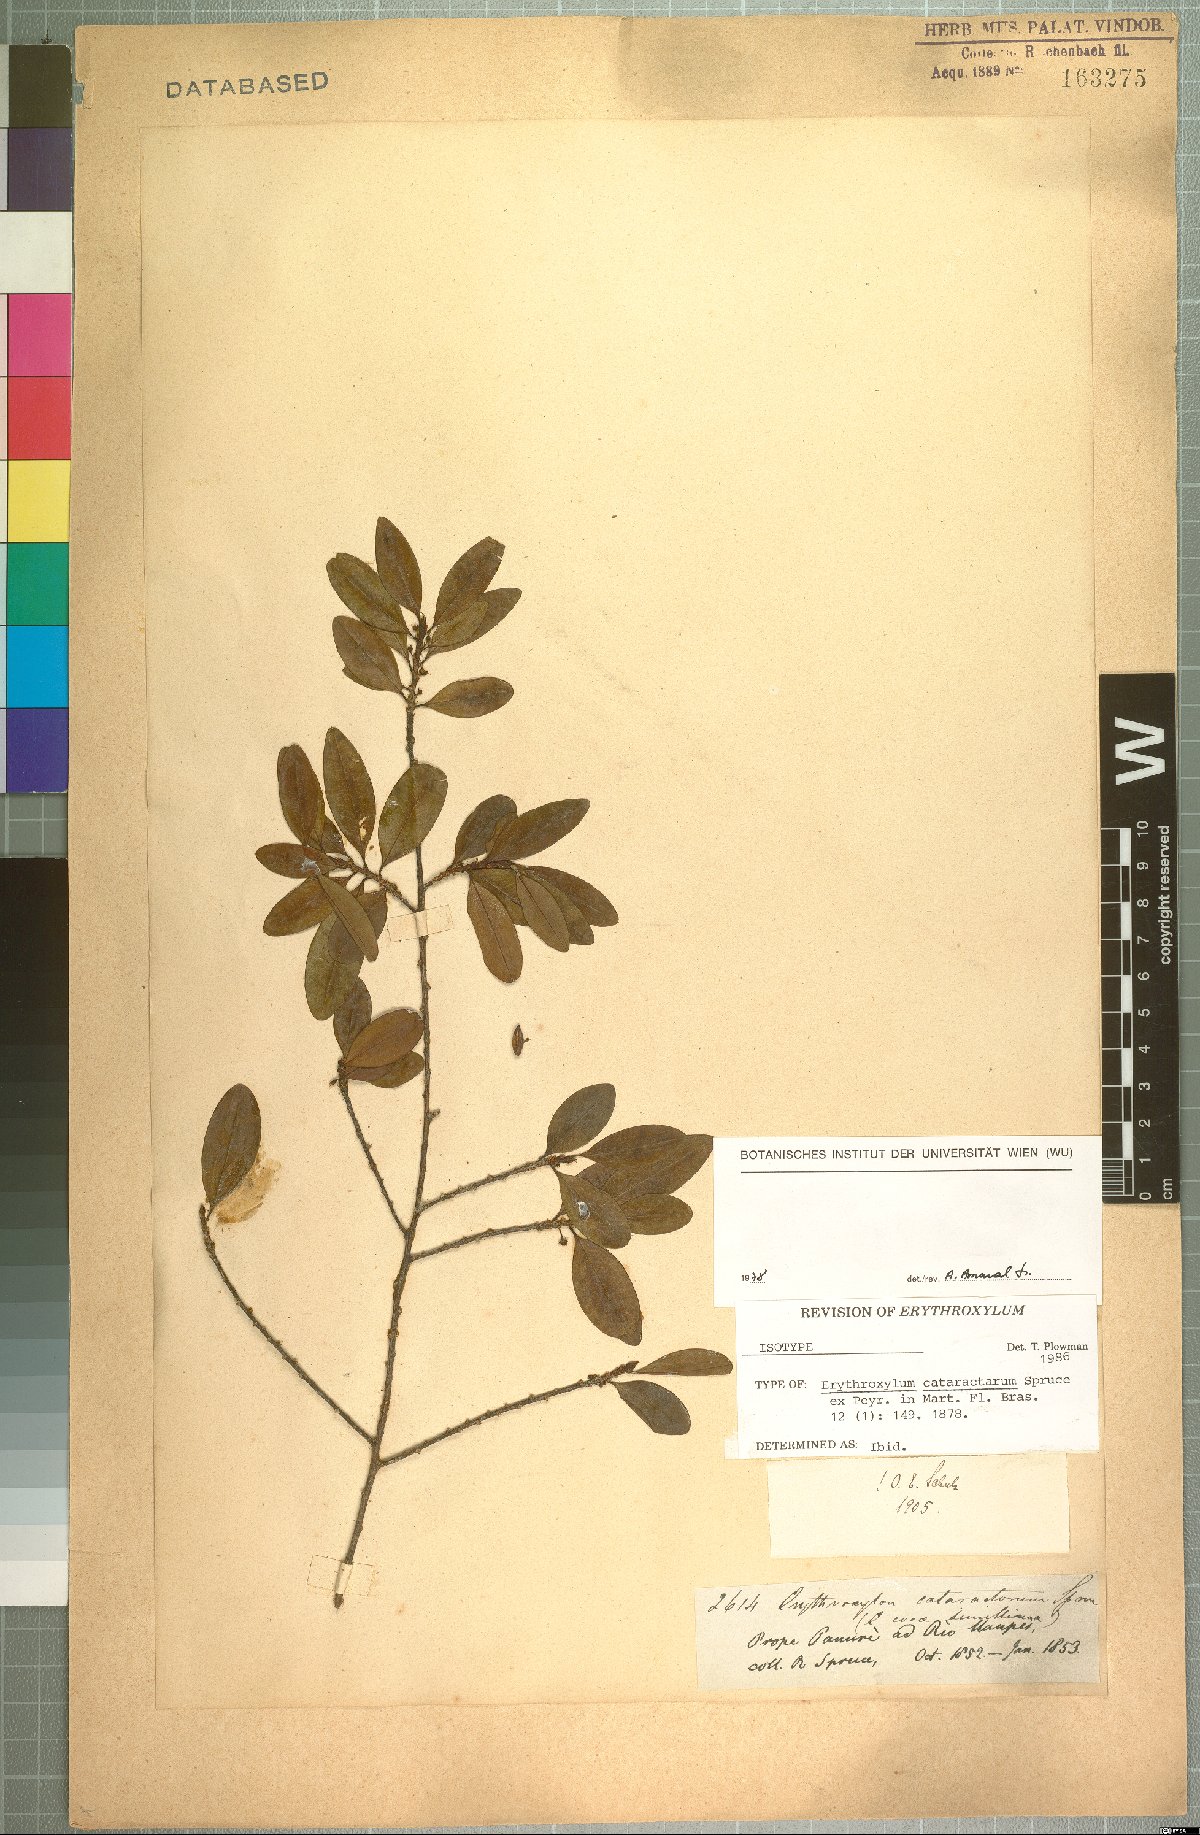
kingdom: Plantae
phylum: Tracheophyta
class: Magnoliopsida
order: Malpighiales
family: Erythroxylaceae
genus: Erythroxylum
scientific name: Erythroxylum cataractarum
